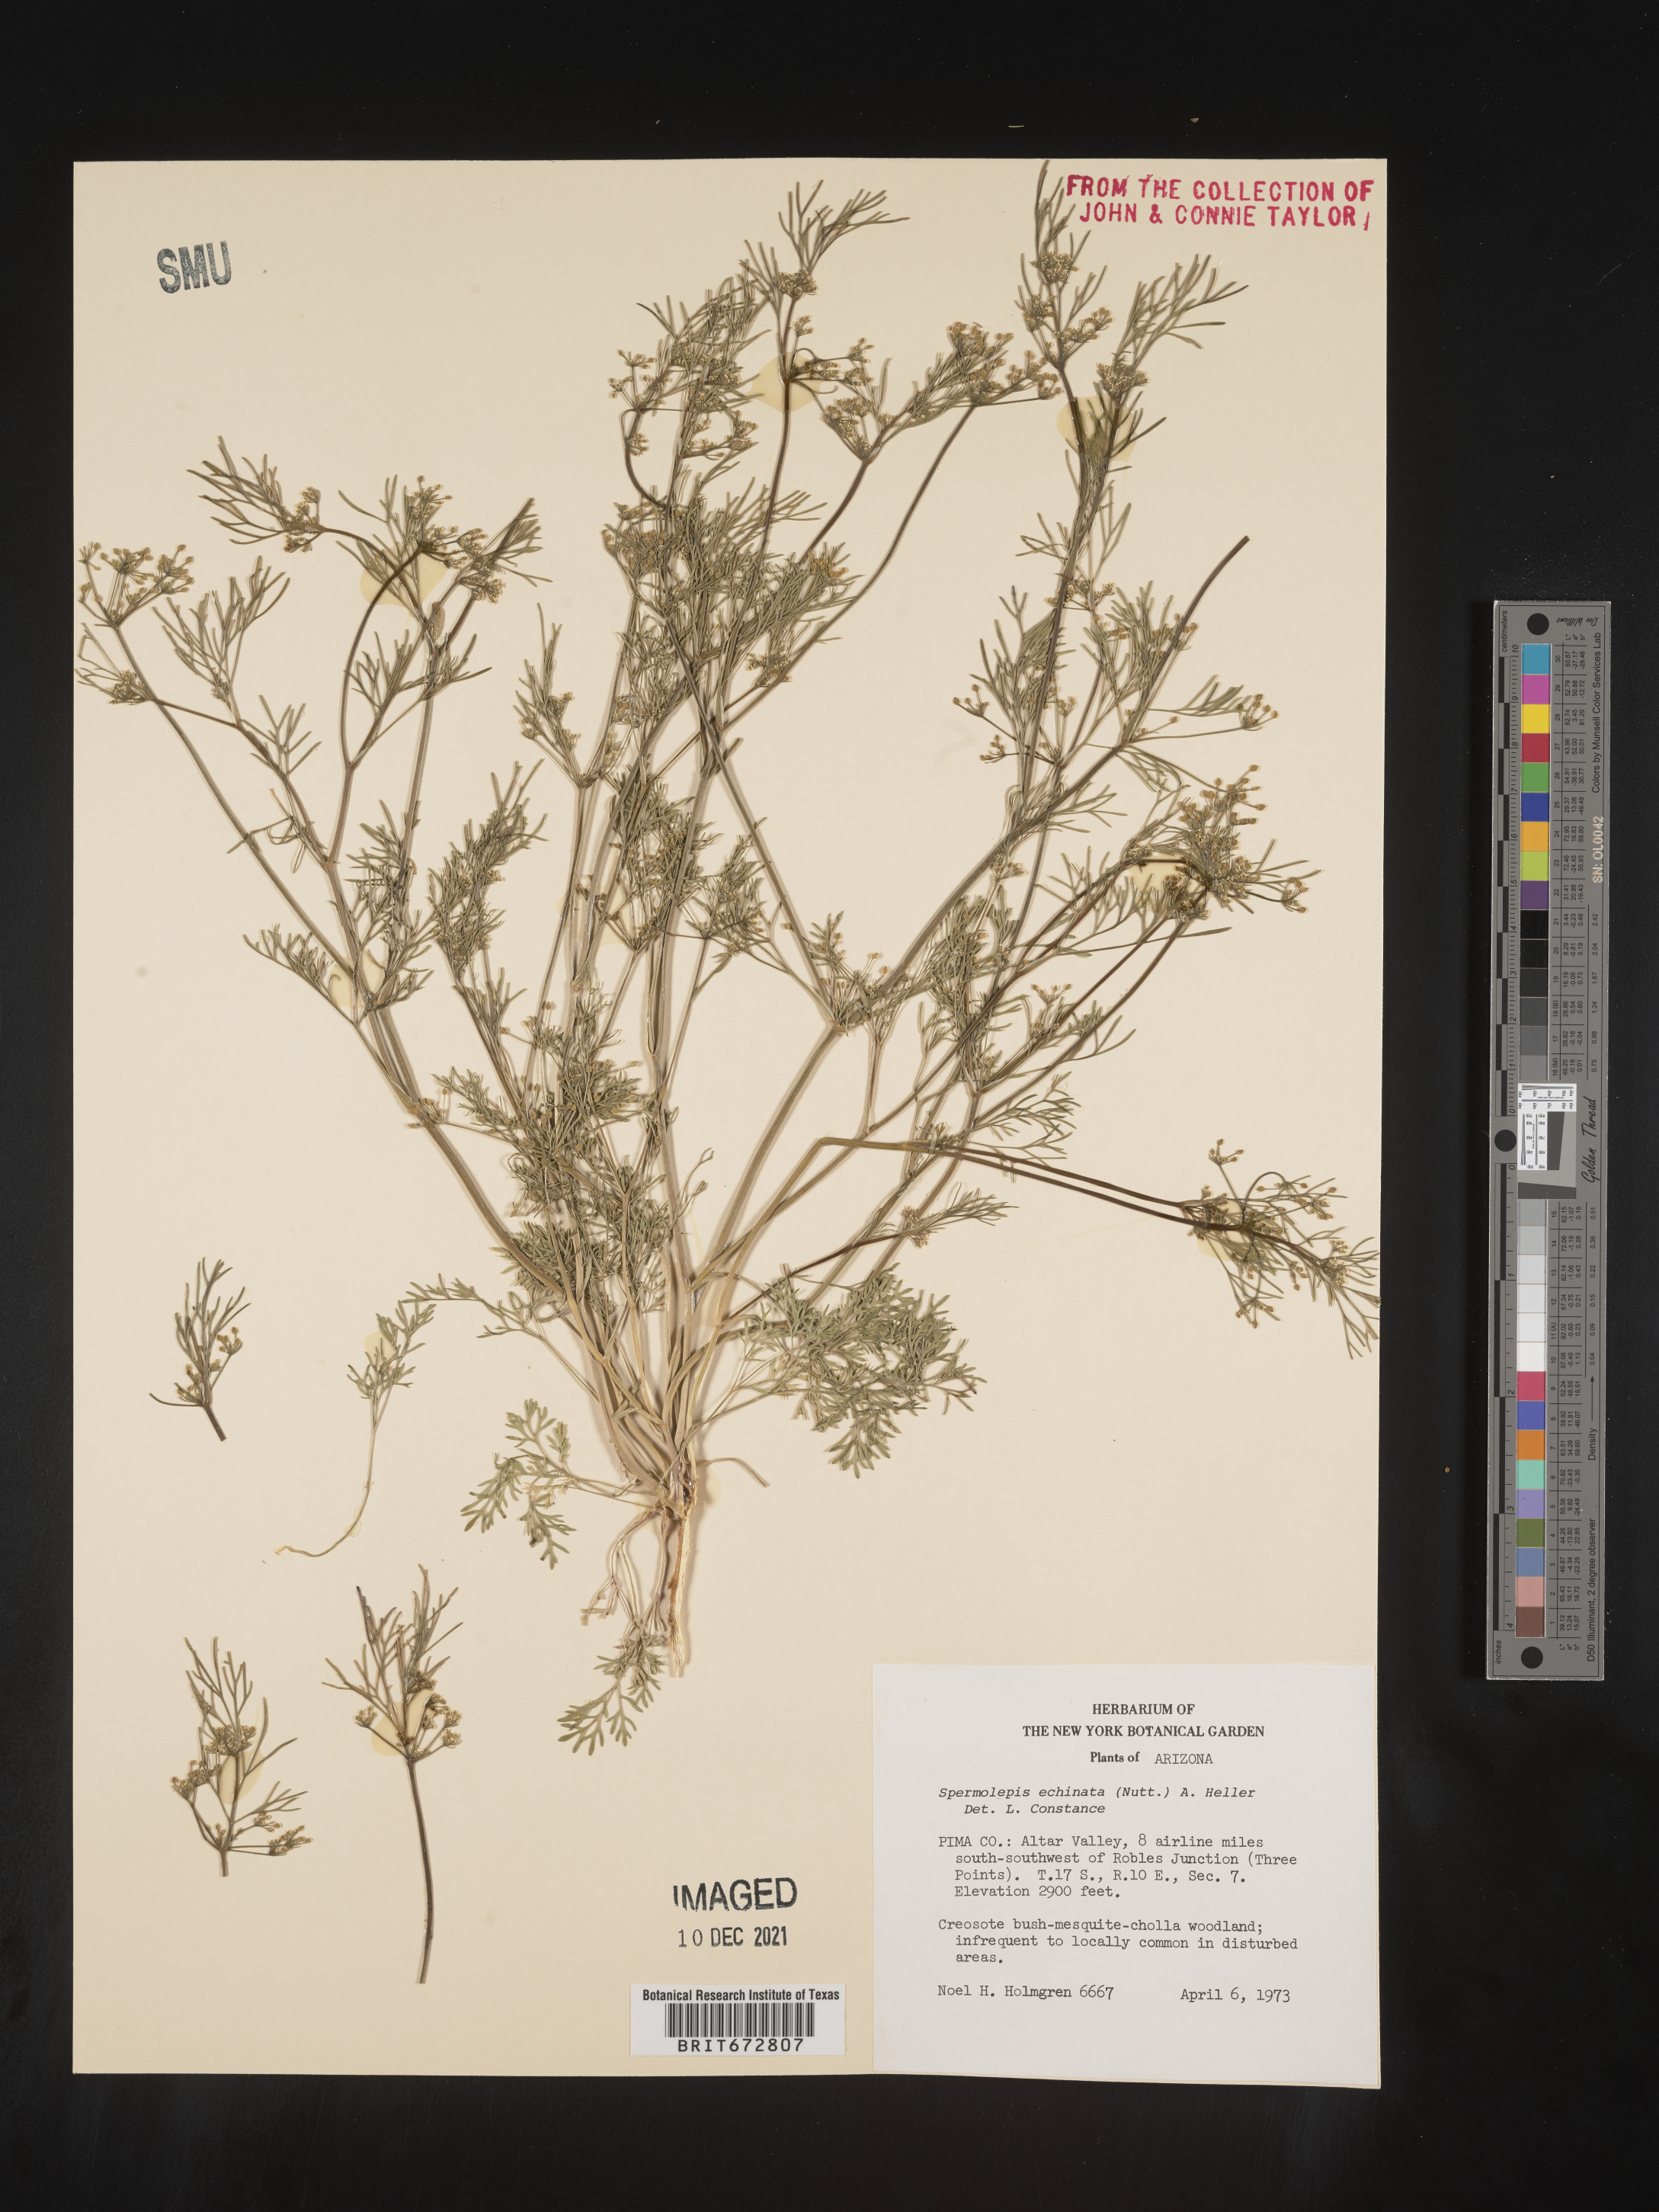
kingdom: Plantae
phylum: Tracheophyta
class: Magnoliopsida
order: Apiales
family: Apiaceae
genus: Spermolepis
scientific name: Spermolepis echinatus
